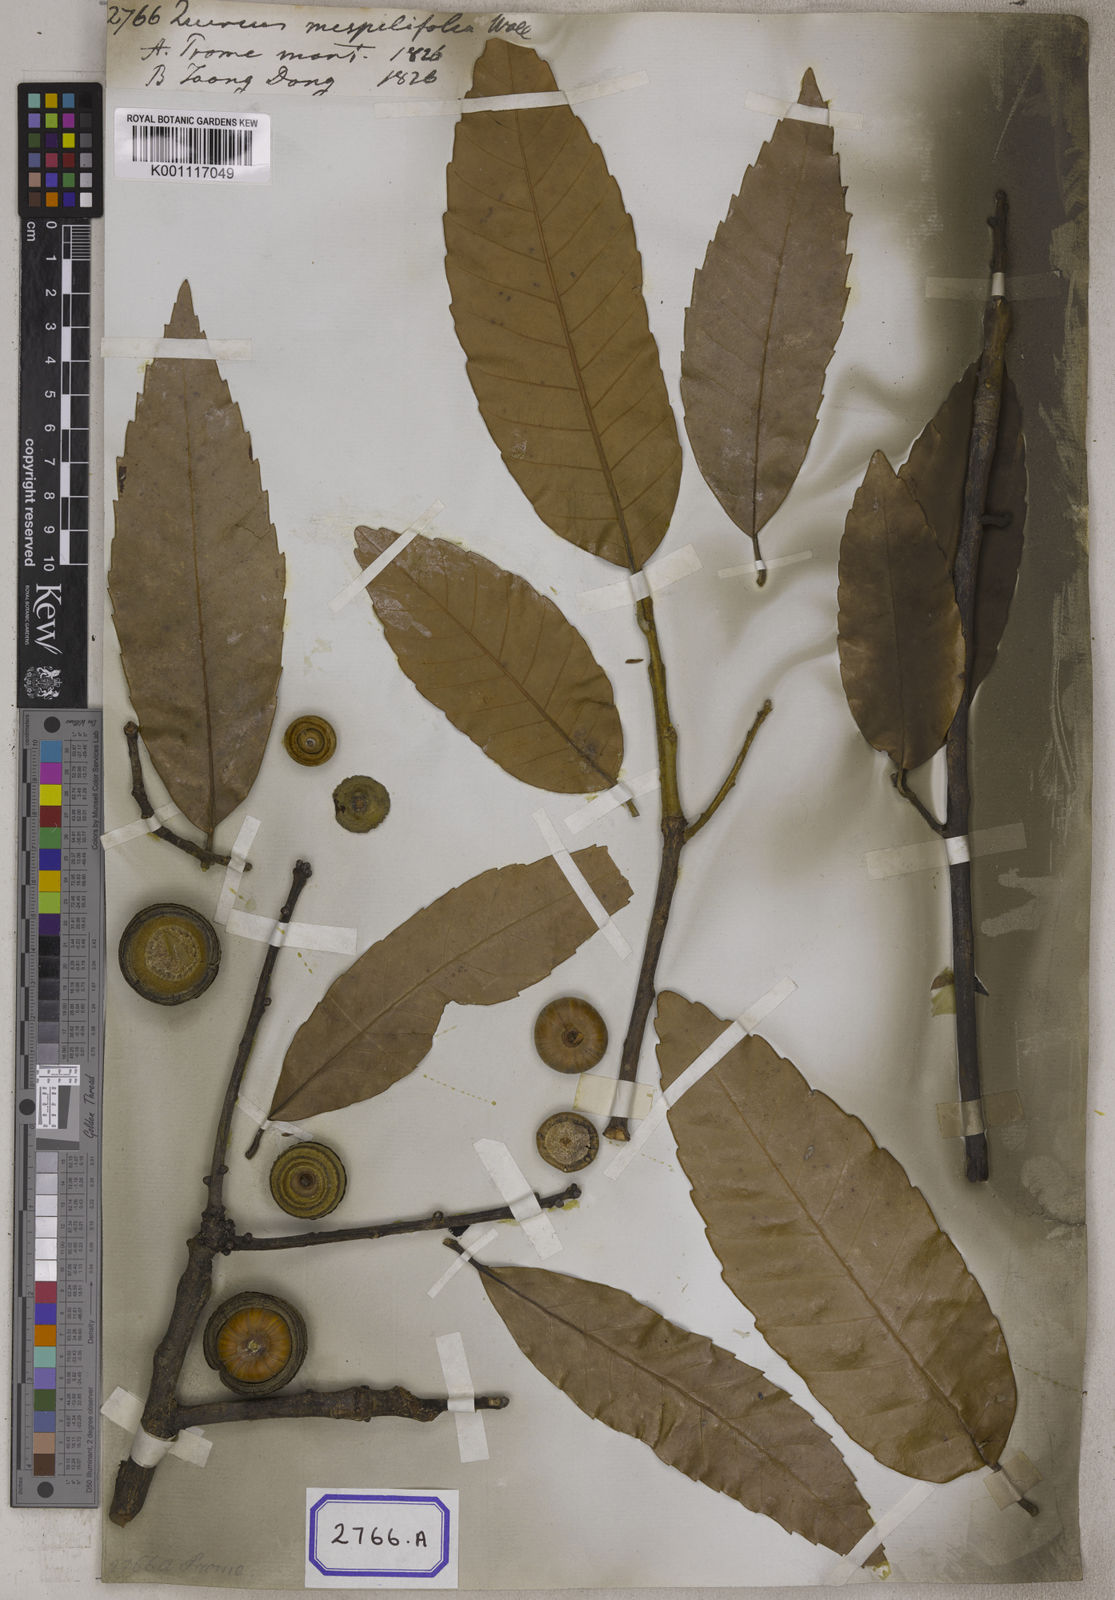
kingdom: Plantae
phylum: Tracheophyta
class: Magnoliopsida
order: Fagales
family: Fagaceae
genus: Quercus
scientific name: Quercus
